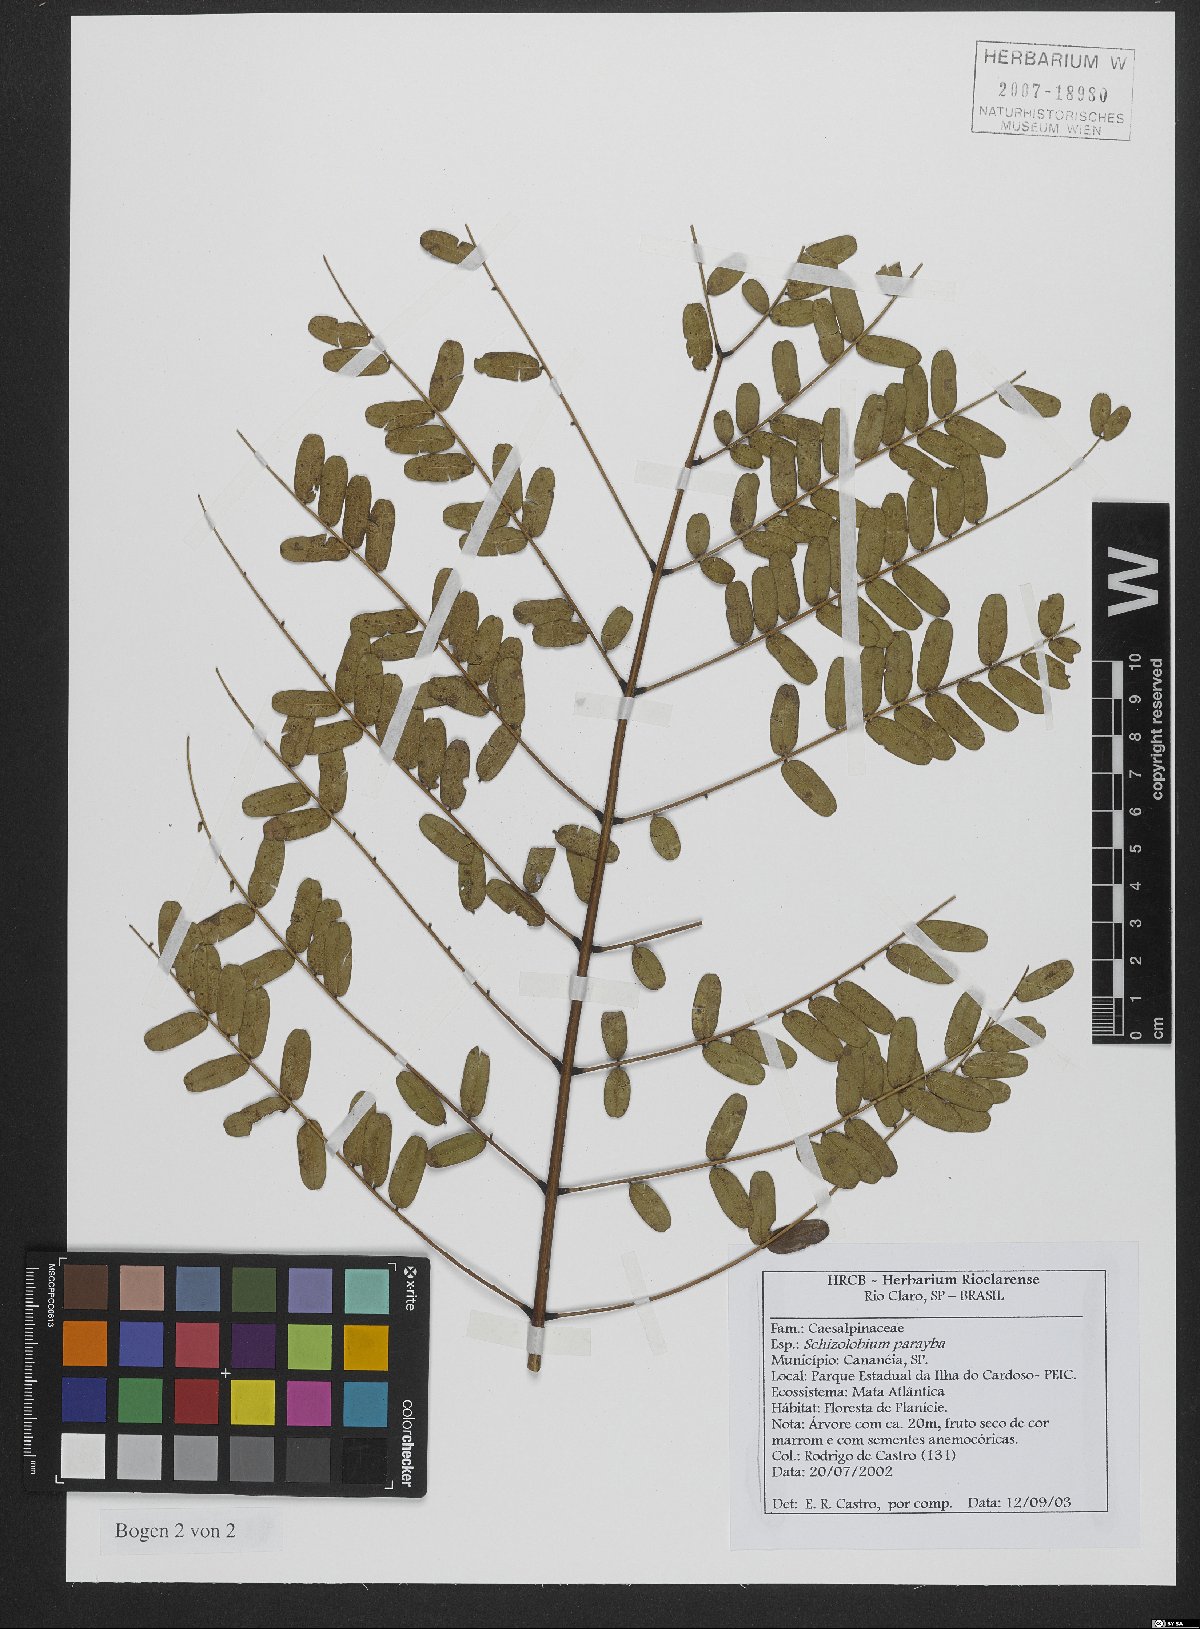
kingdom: Plantae
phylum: Tracheophyta
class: Magnoliopsida
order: Fabales
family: Fabaceae
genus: Schizolobium
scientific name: Schizolobium parahyba
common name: Brazilian firetree
